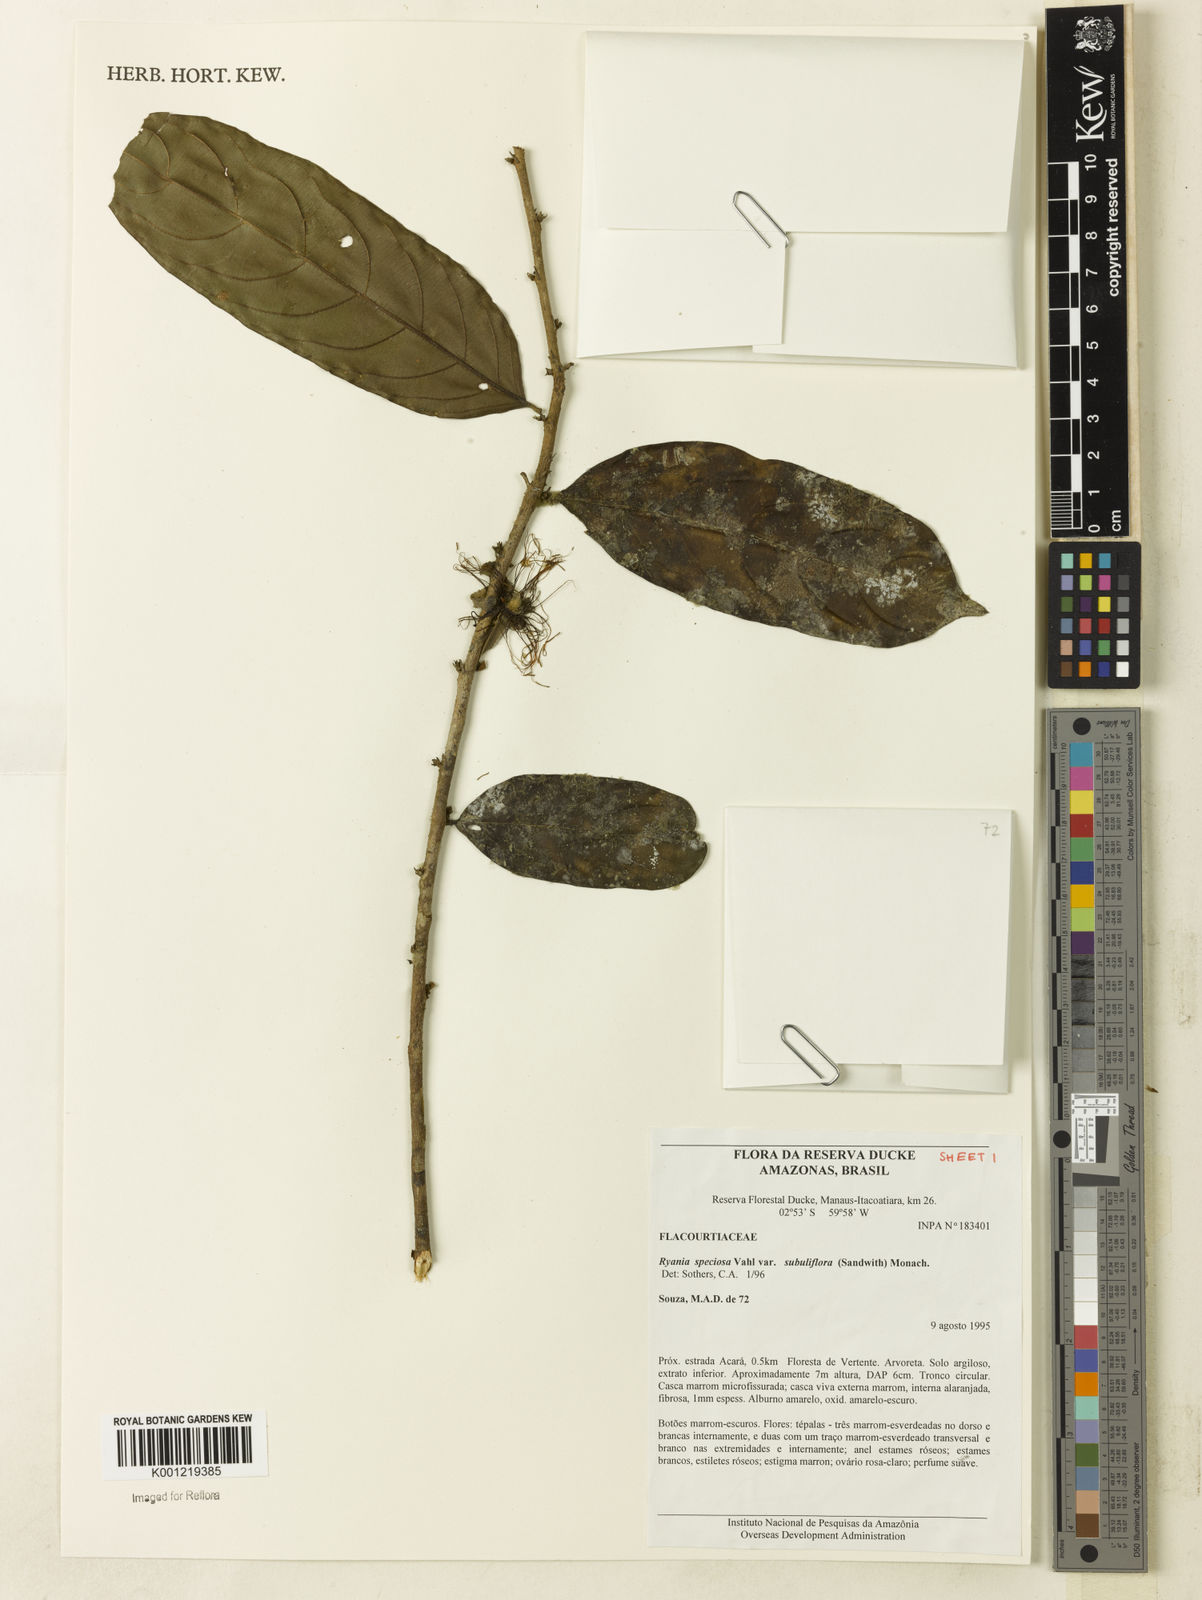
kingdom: Plantae
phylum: Tracheophyta
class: Magnoliopsida
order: Malpighiales
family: Salicaceae
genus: Ryania
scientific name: Ryania speciosa
